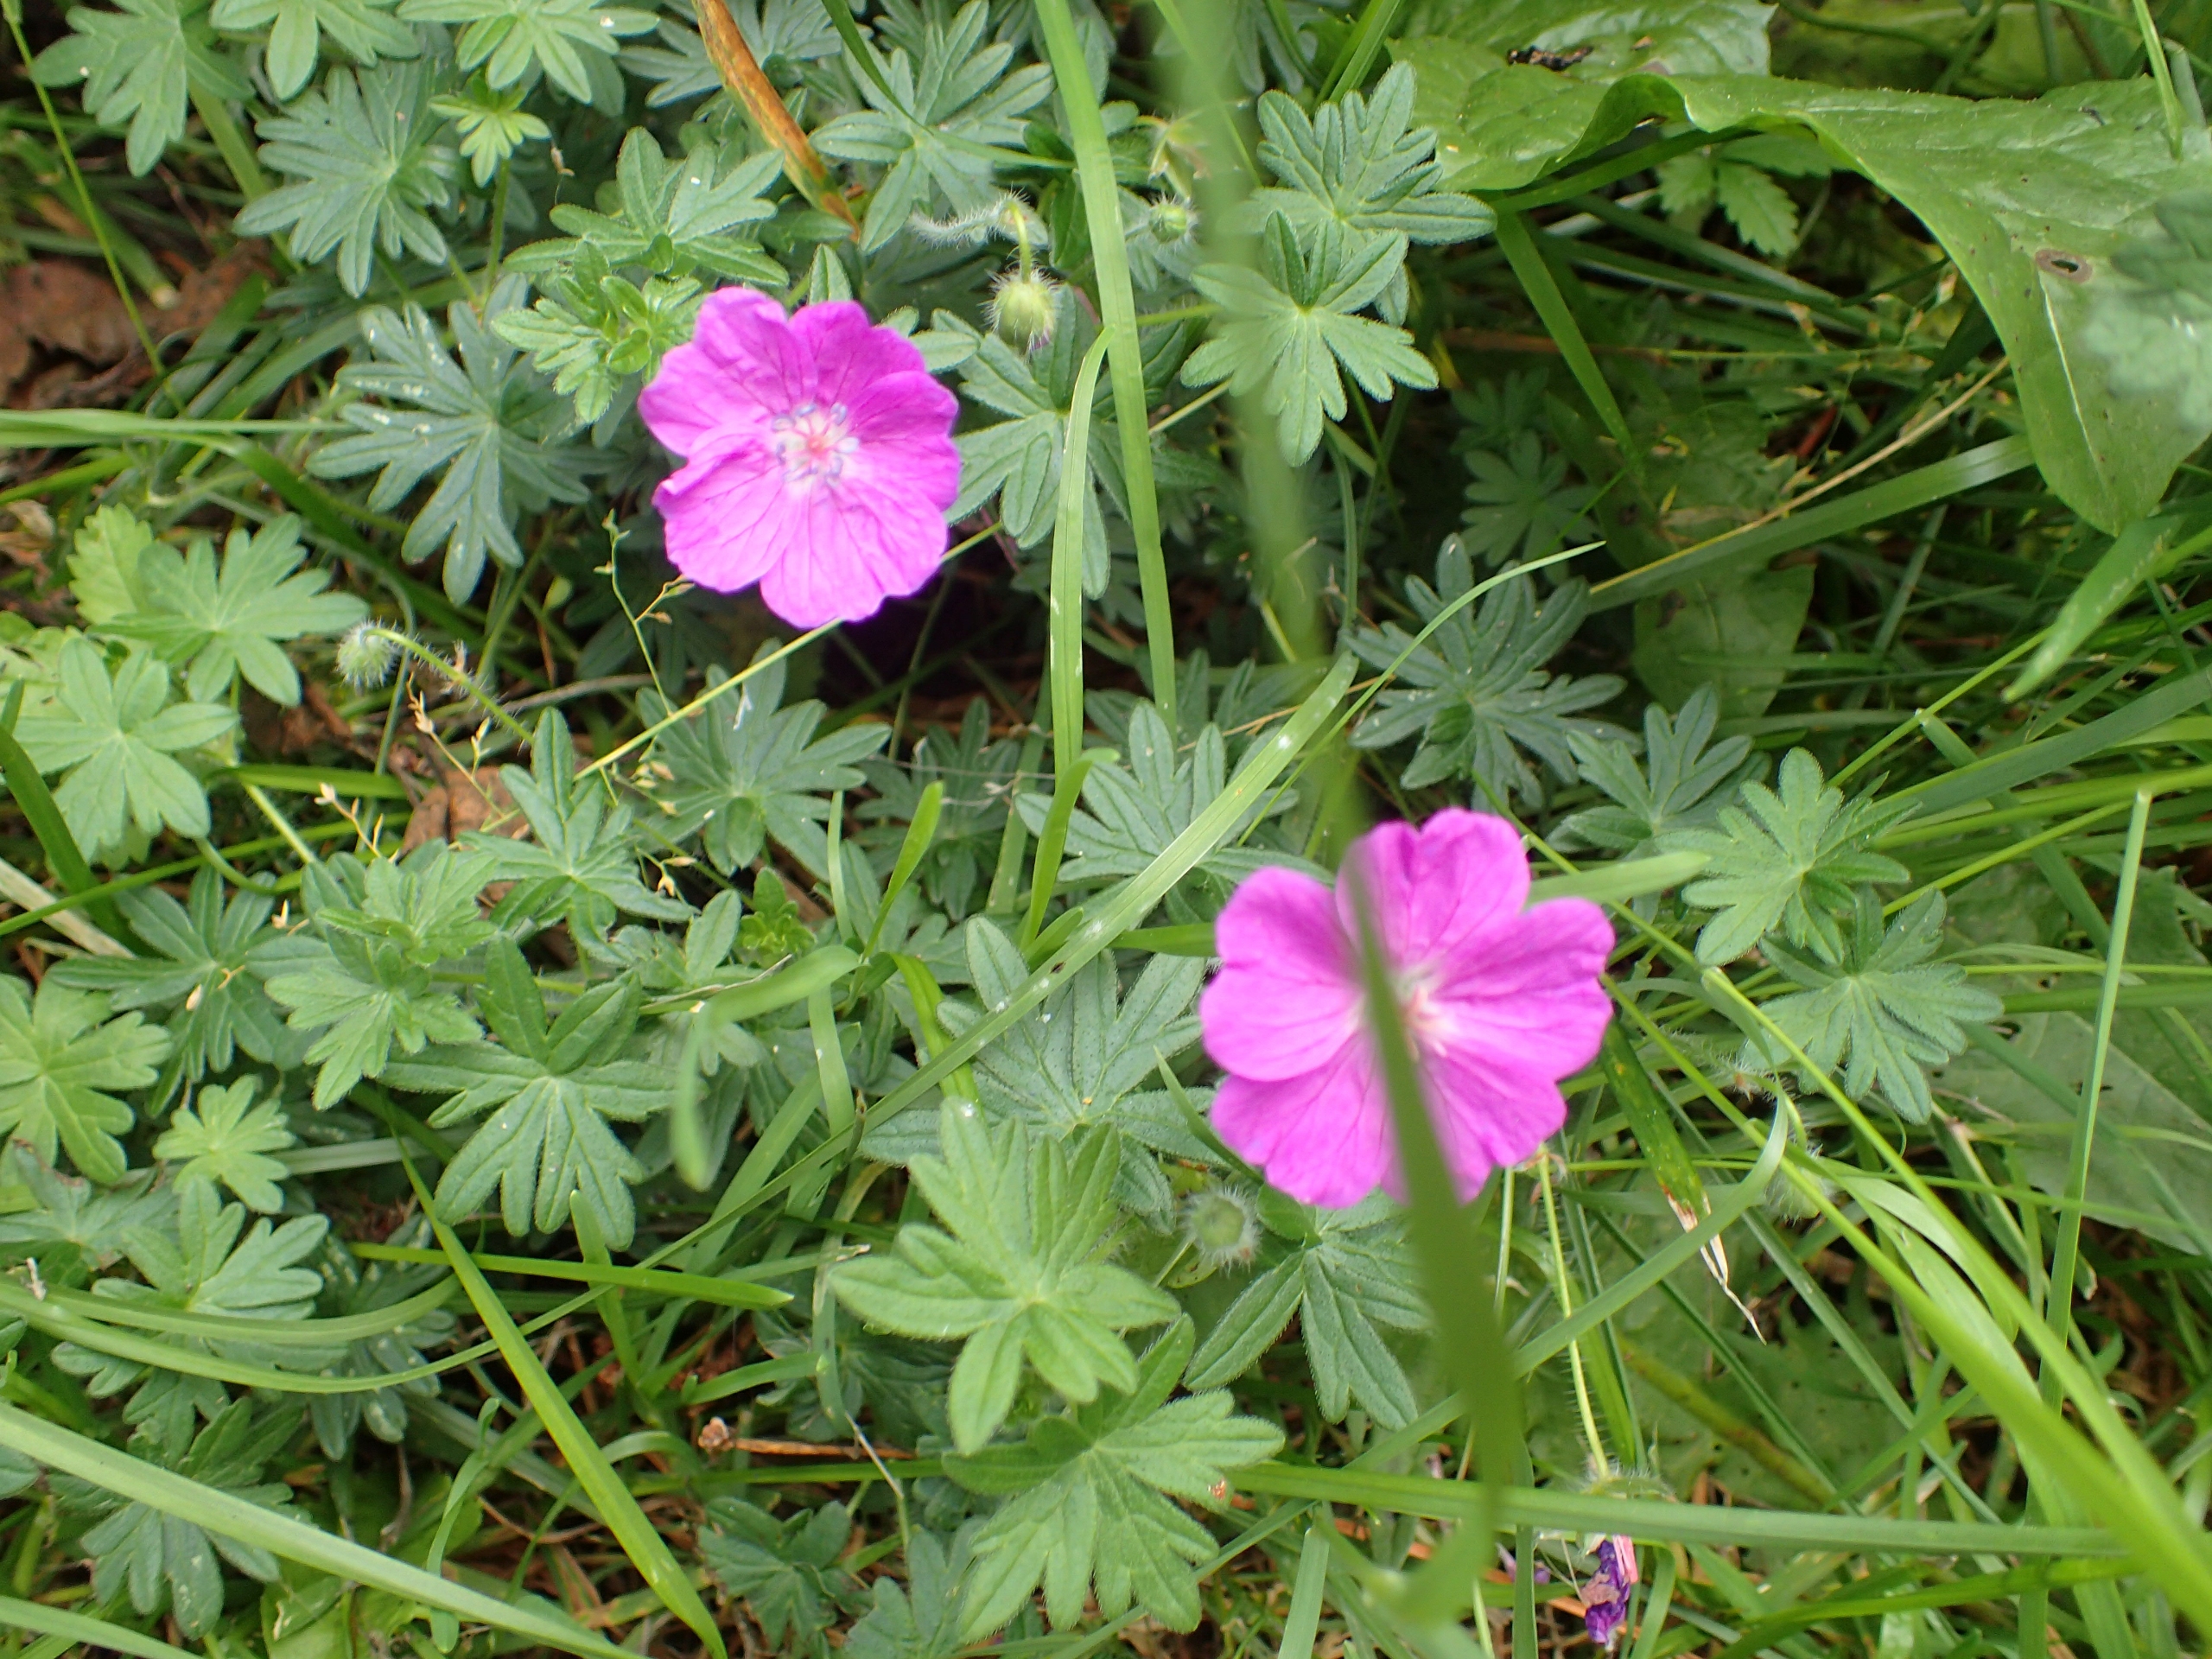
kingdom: Plantae
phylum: Tracheophyta
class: Magnoliopsida
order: Geraniales
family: Geraniaceae
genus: Geranium
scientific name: Geranium endressii
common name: Spansk storkenæb
